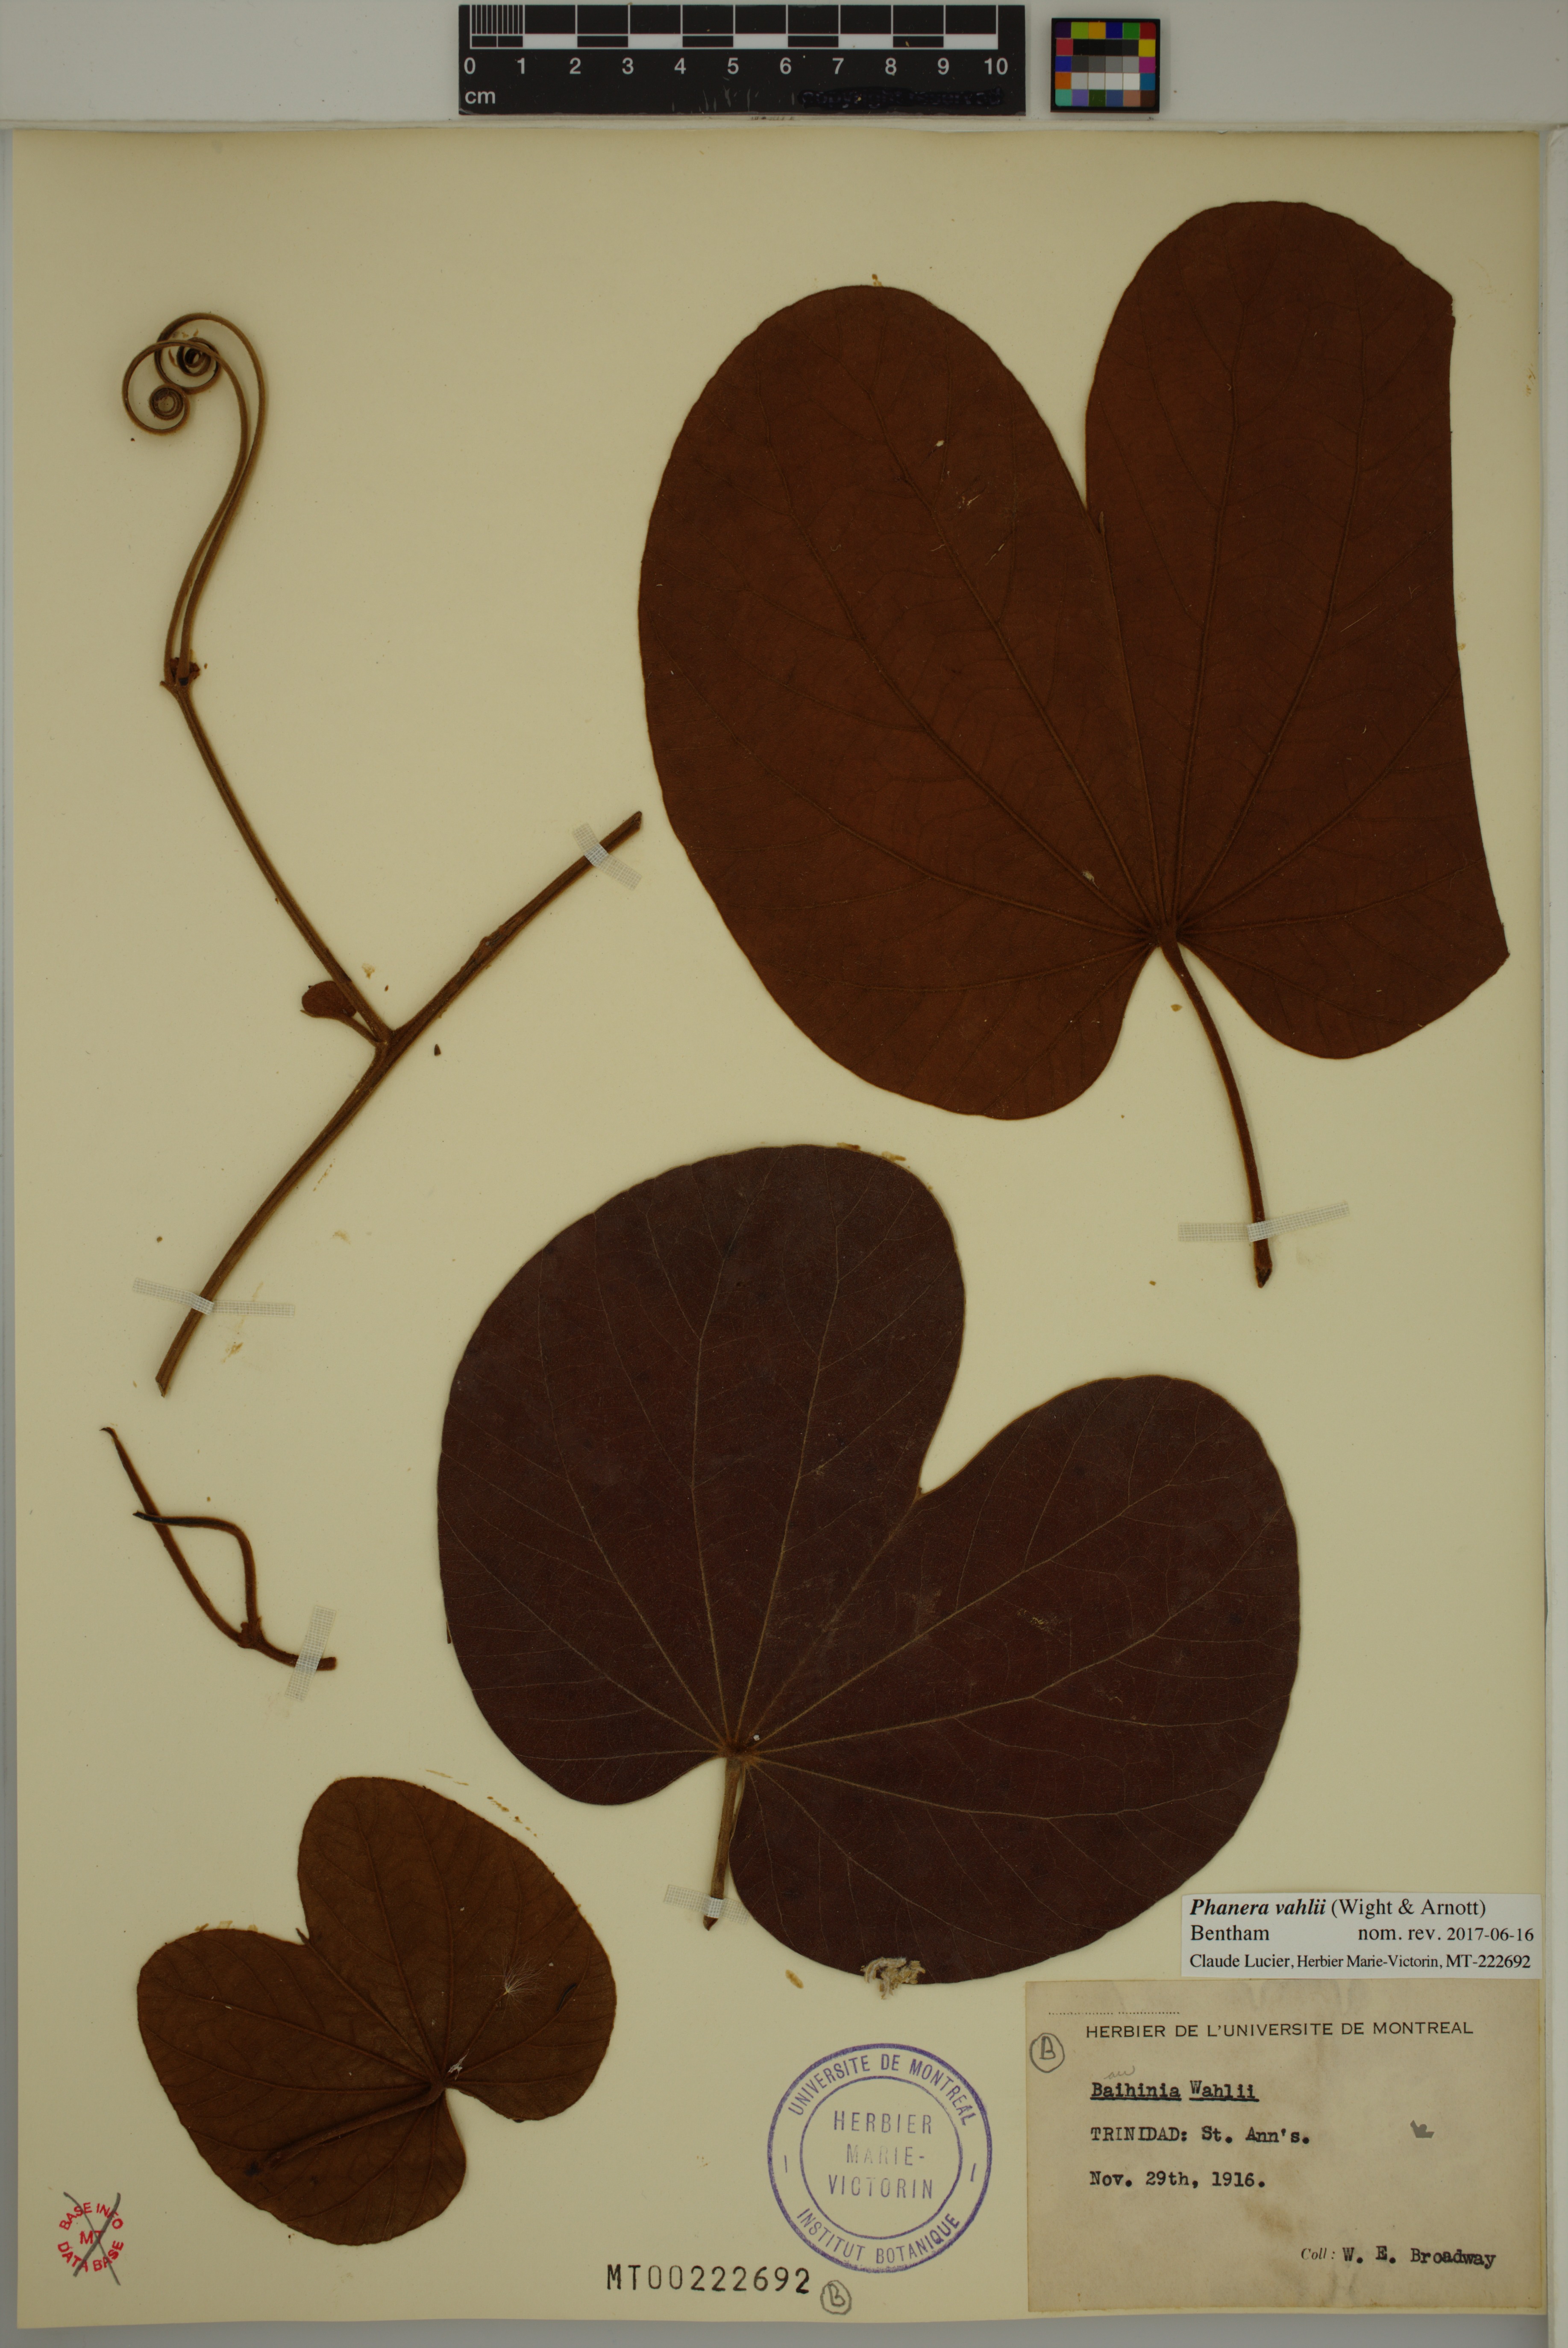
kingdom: Plantae
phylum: Tracheophyta
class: Magnoliopsida
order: Fabales
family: Fabaceae
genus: Phanera
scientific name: Phanera vahlii
